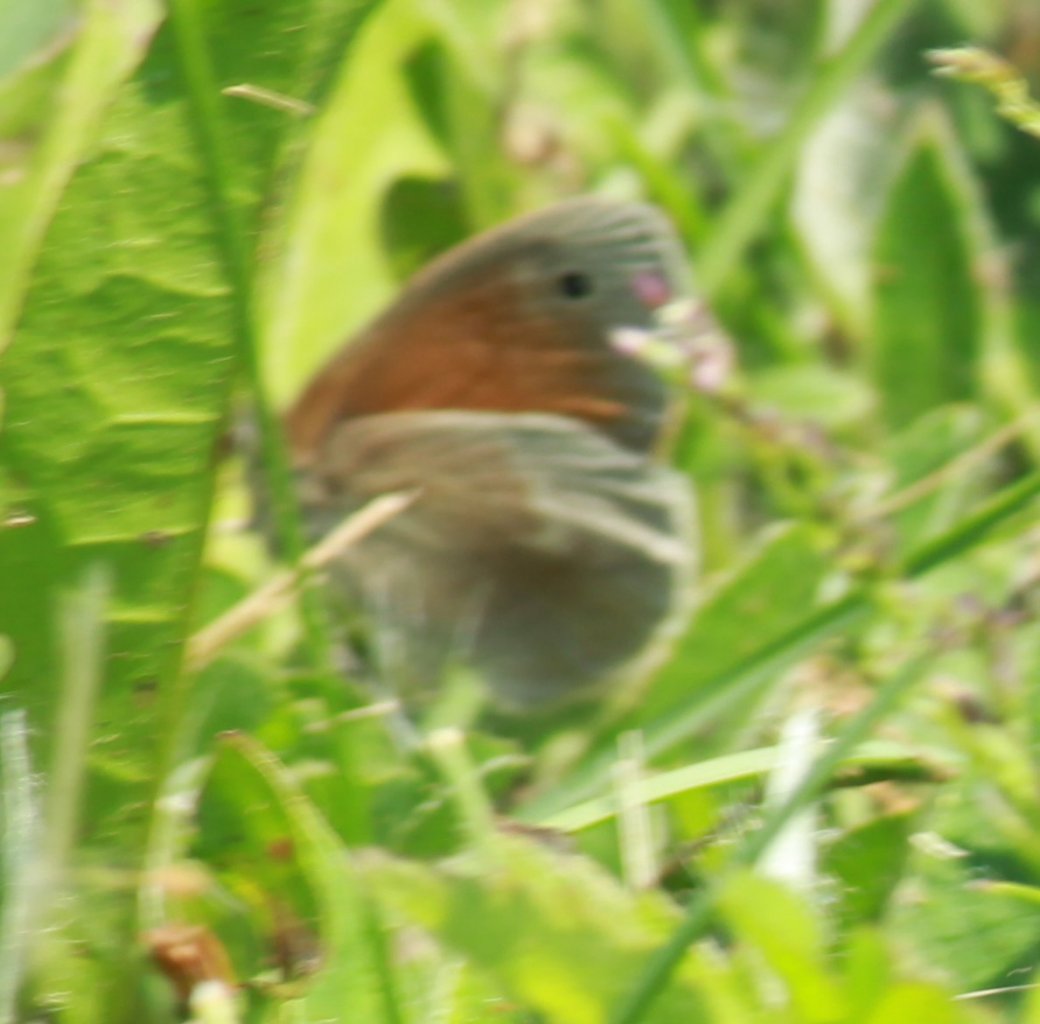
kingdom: Animalia
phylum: Arthropoda
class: Insecta
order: Lepidoptera
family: Nymphalidae
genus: Coenonympha
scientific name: Coenonympha tullia
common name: Large Heath
